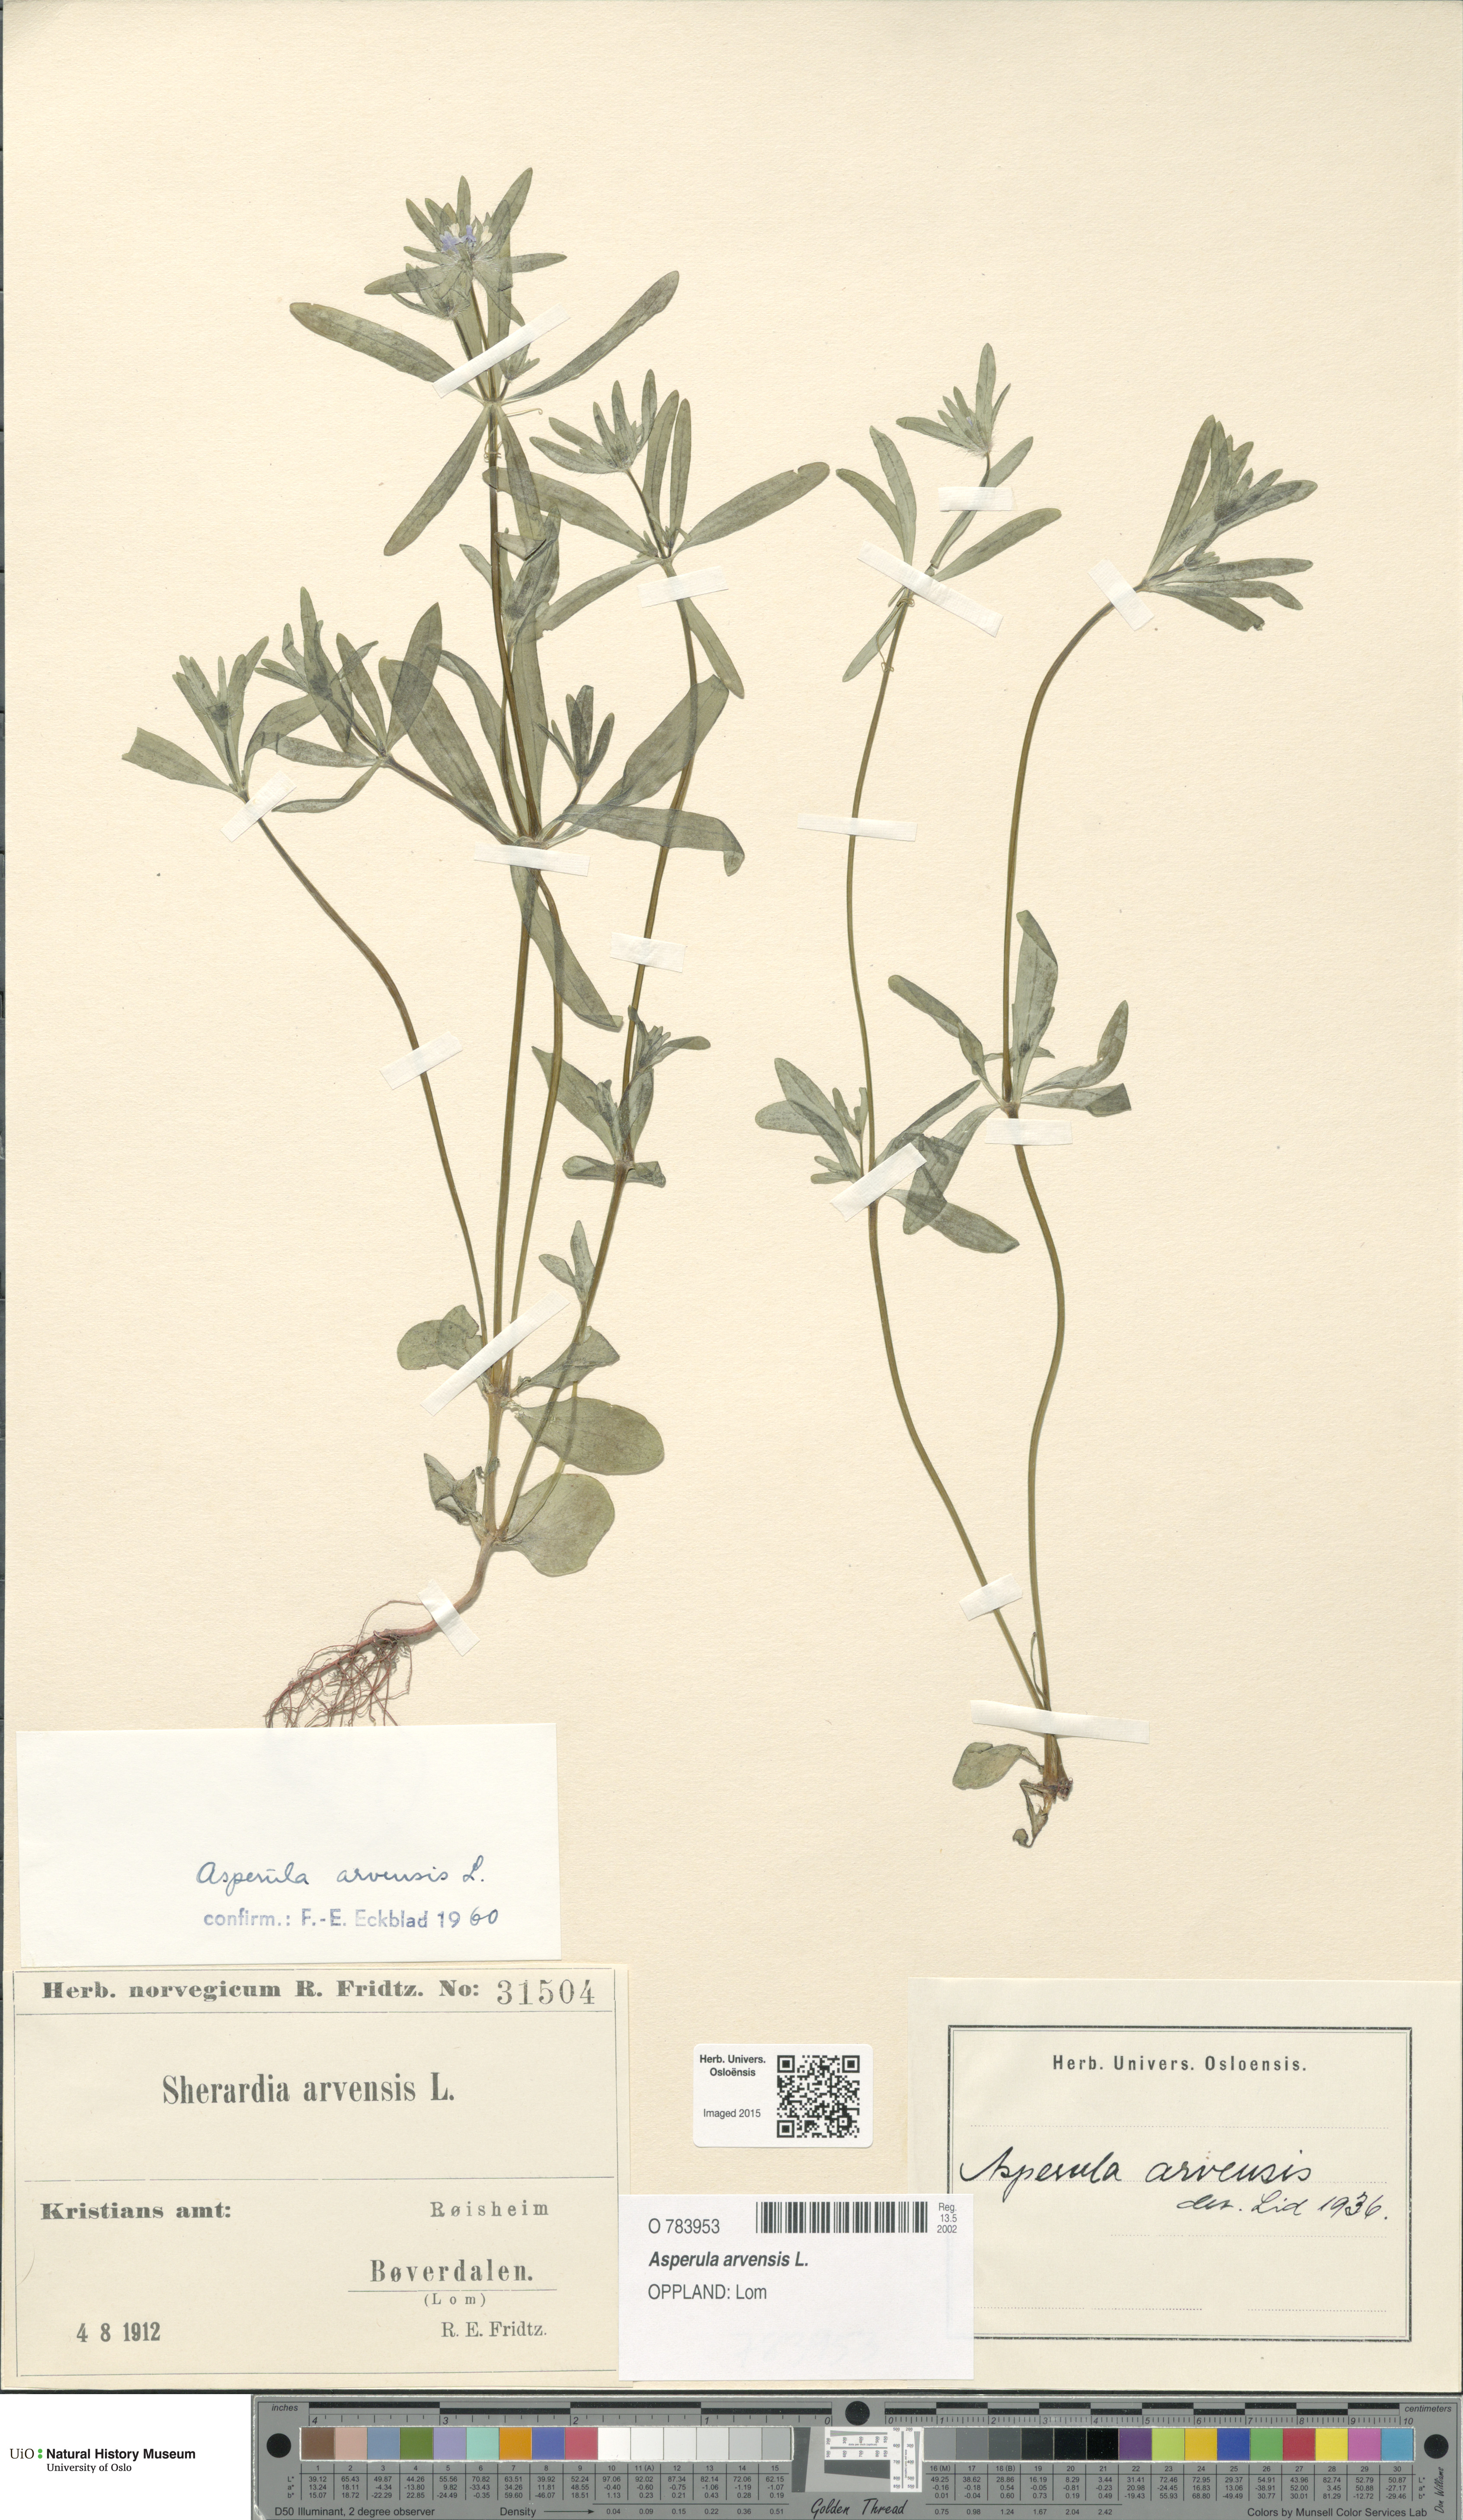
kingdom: Plantae
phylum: Tracheophyta
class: Magnoliopsida
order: Gentianales
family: Rubiaceae
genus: Asperula
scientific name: Asperula arvensis
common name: Blue woodruff
